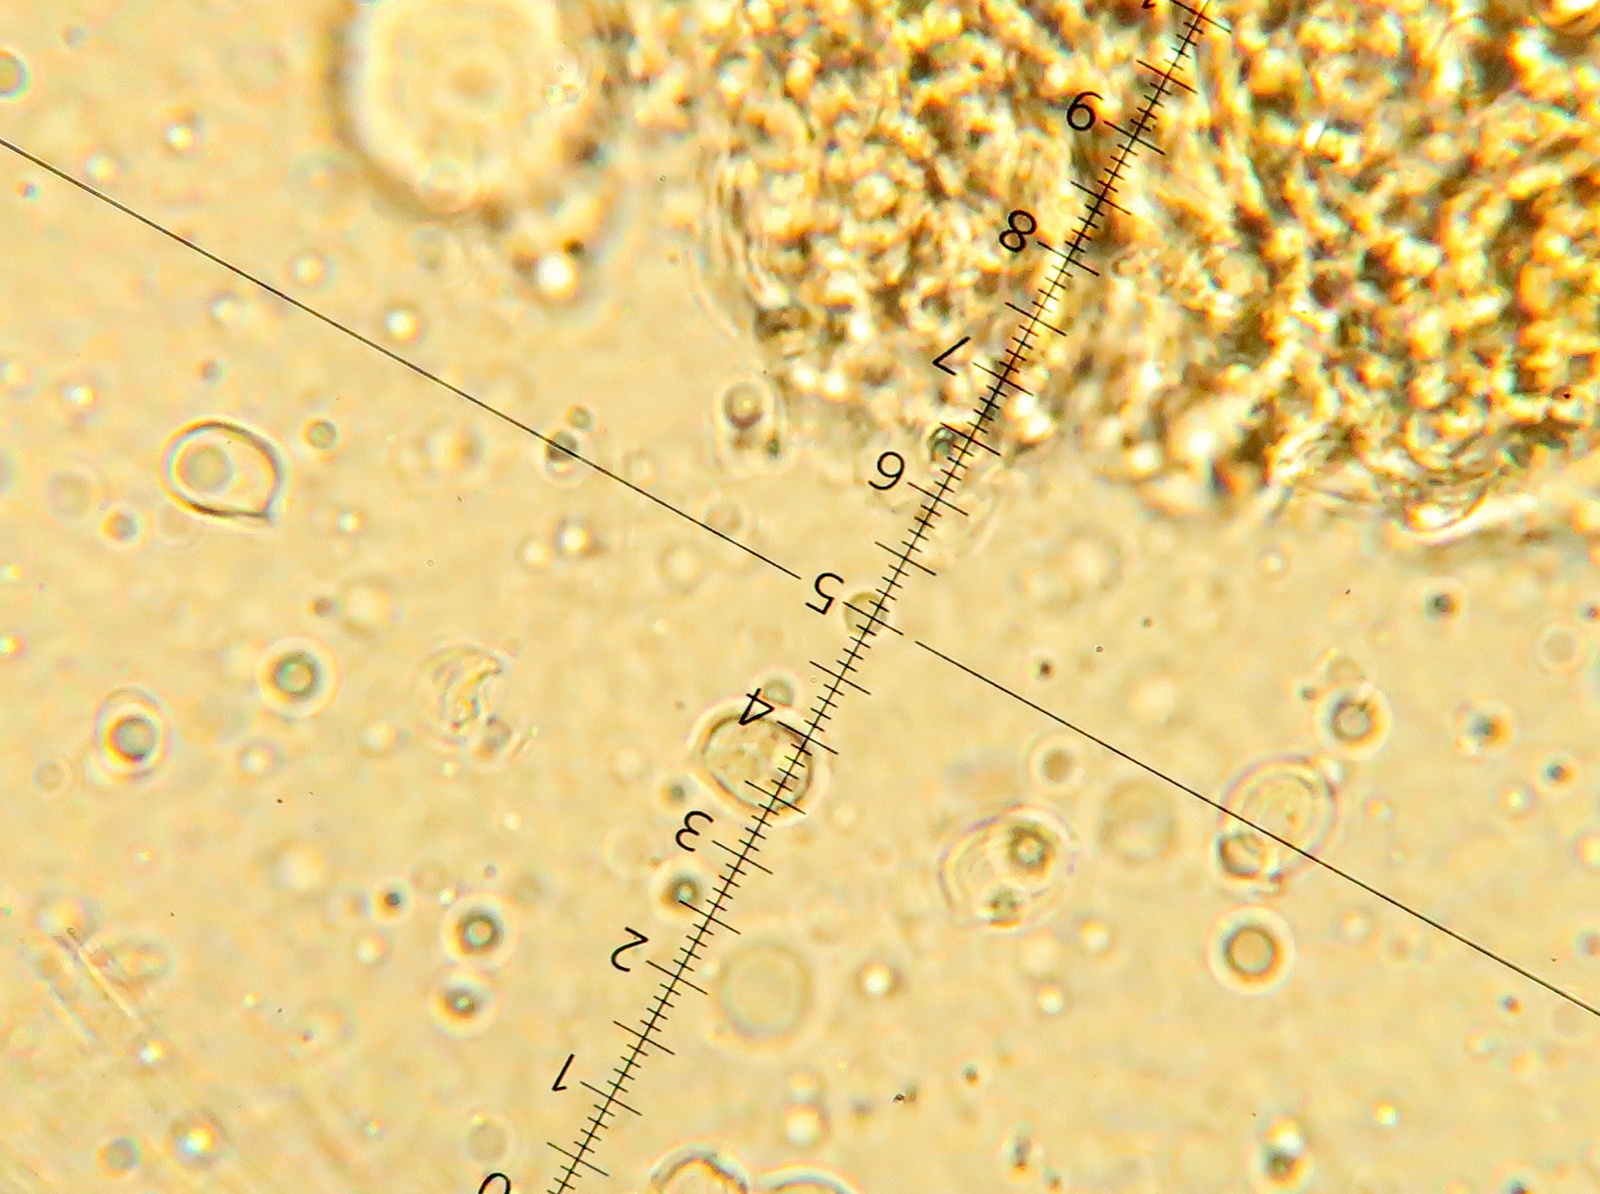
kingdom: Fungi
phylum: Basidiomycota
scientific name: Basidiomycota
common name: basidiesvampe
